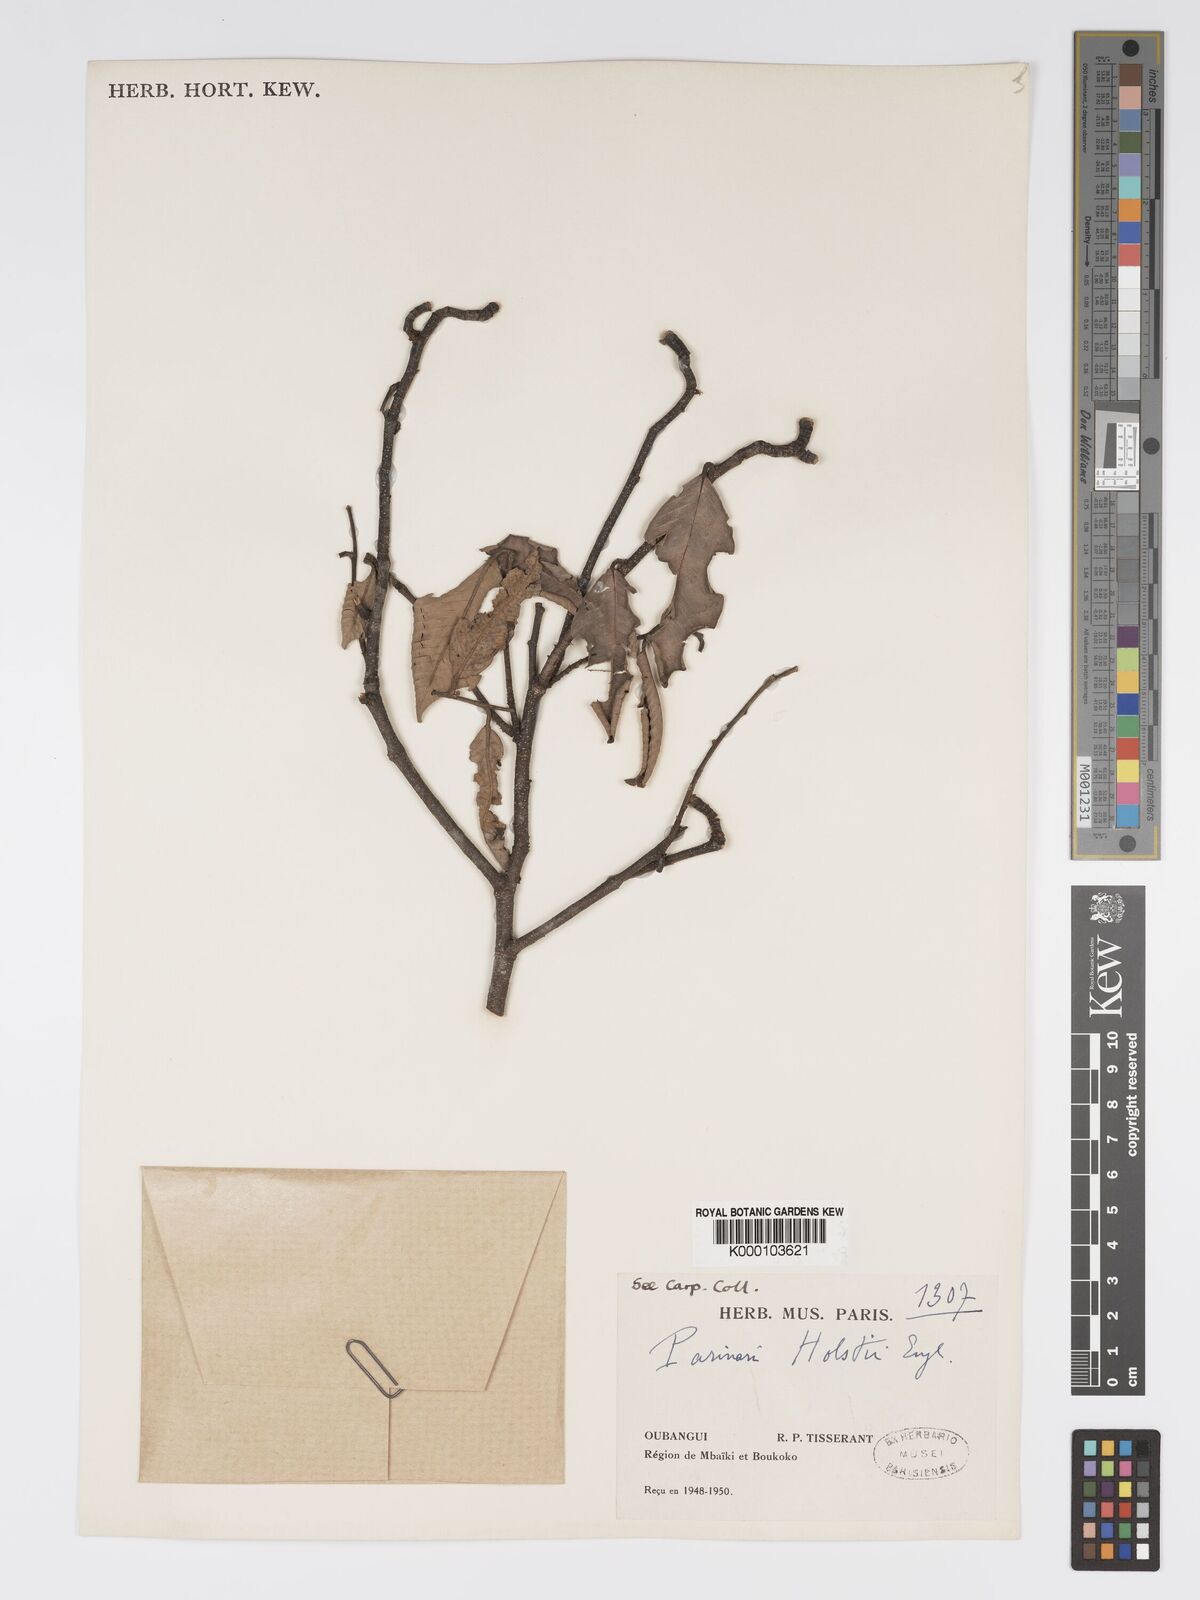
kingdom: Plantae
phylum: Tracheophyta
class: Magnoliopsida
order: Malpighiales
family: Chrysobalanaceae
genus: Parinari
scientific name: Parinari excelsa
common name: Guinea-plum
